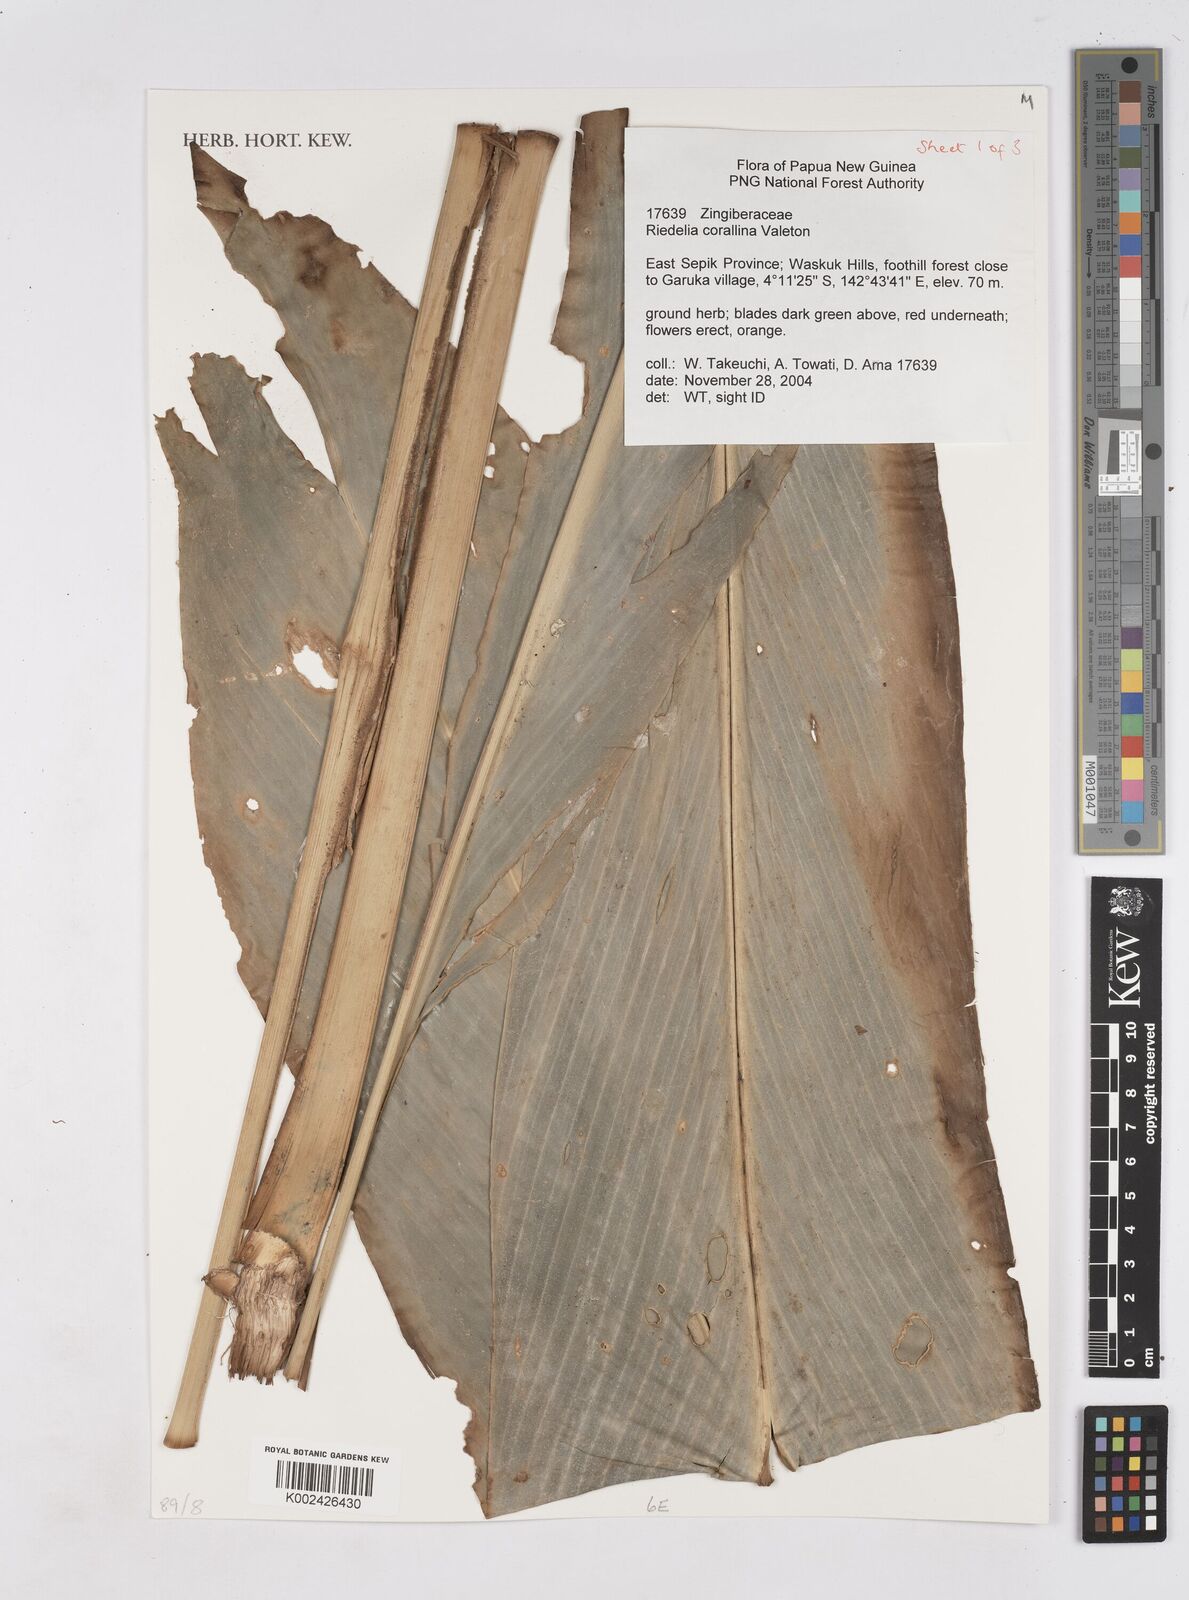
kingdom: Plantae
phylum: Tracheophyta
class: Liliopsida
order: Zingiberales
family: Zingiberaceae
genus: Riedelia
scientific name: Riedelia corallina
